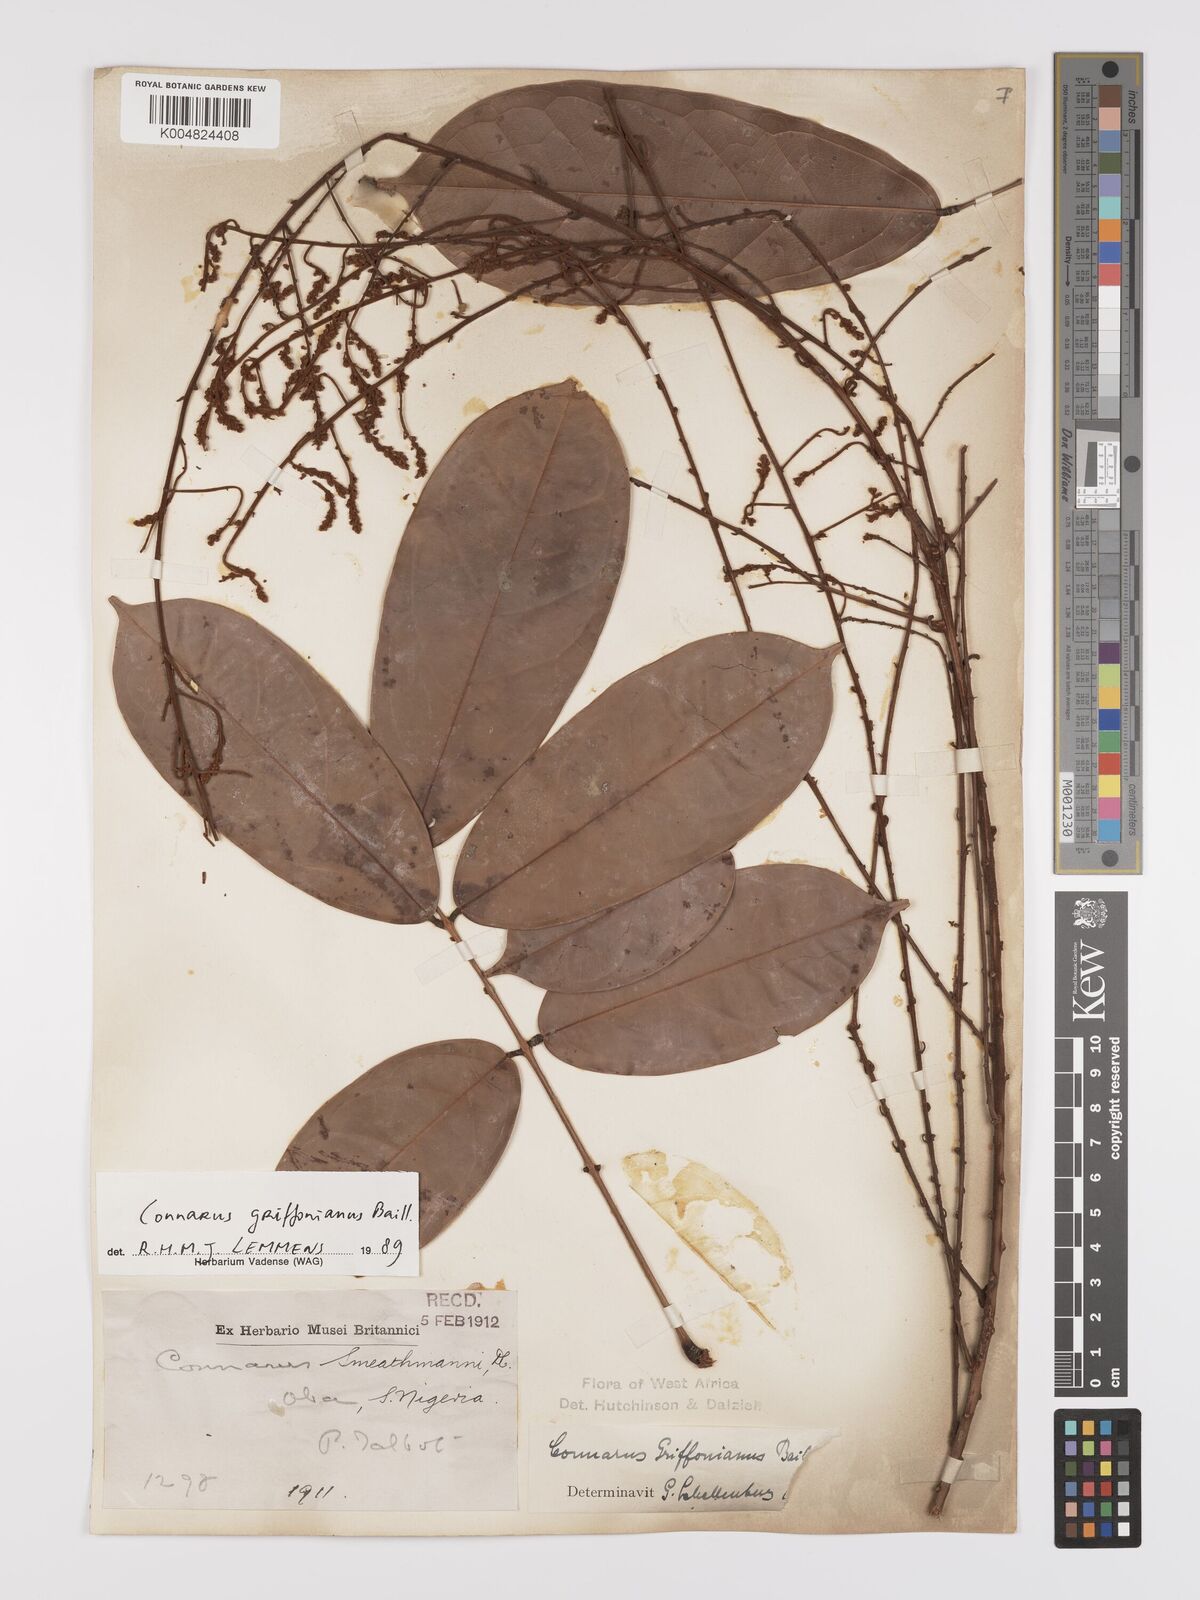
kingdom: Plantae
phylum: Tracheophyta
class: Magnoliopsida
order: Oxalidales
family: Connaraceae
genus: Connarus
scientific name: Connarus griffonianus
